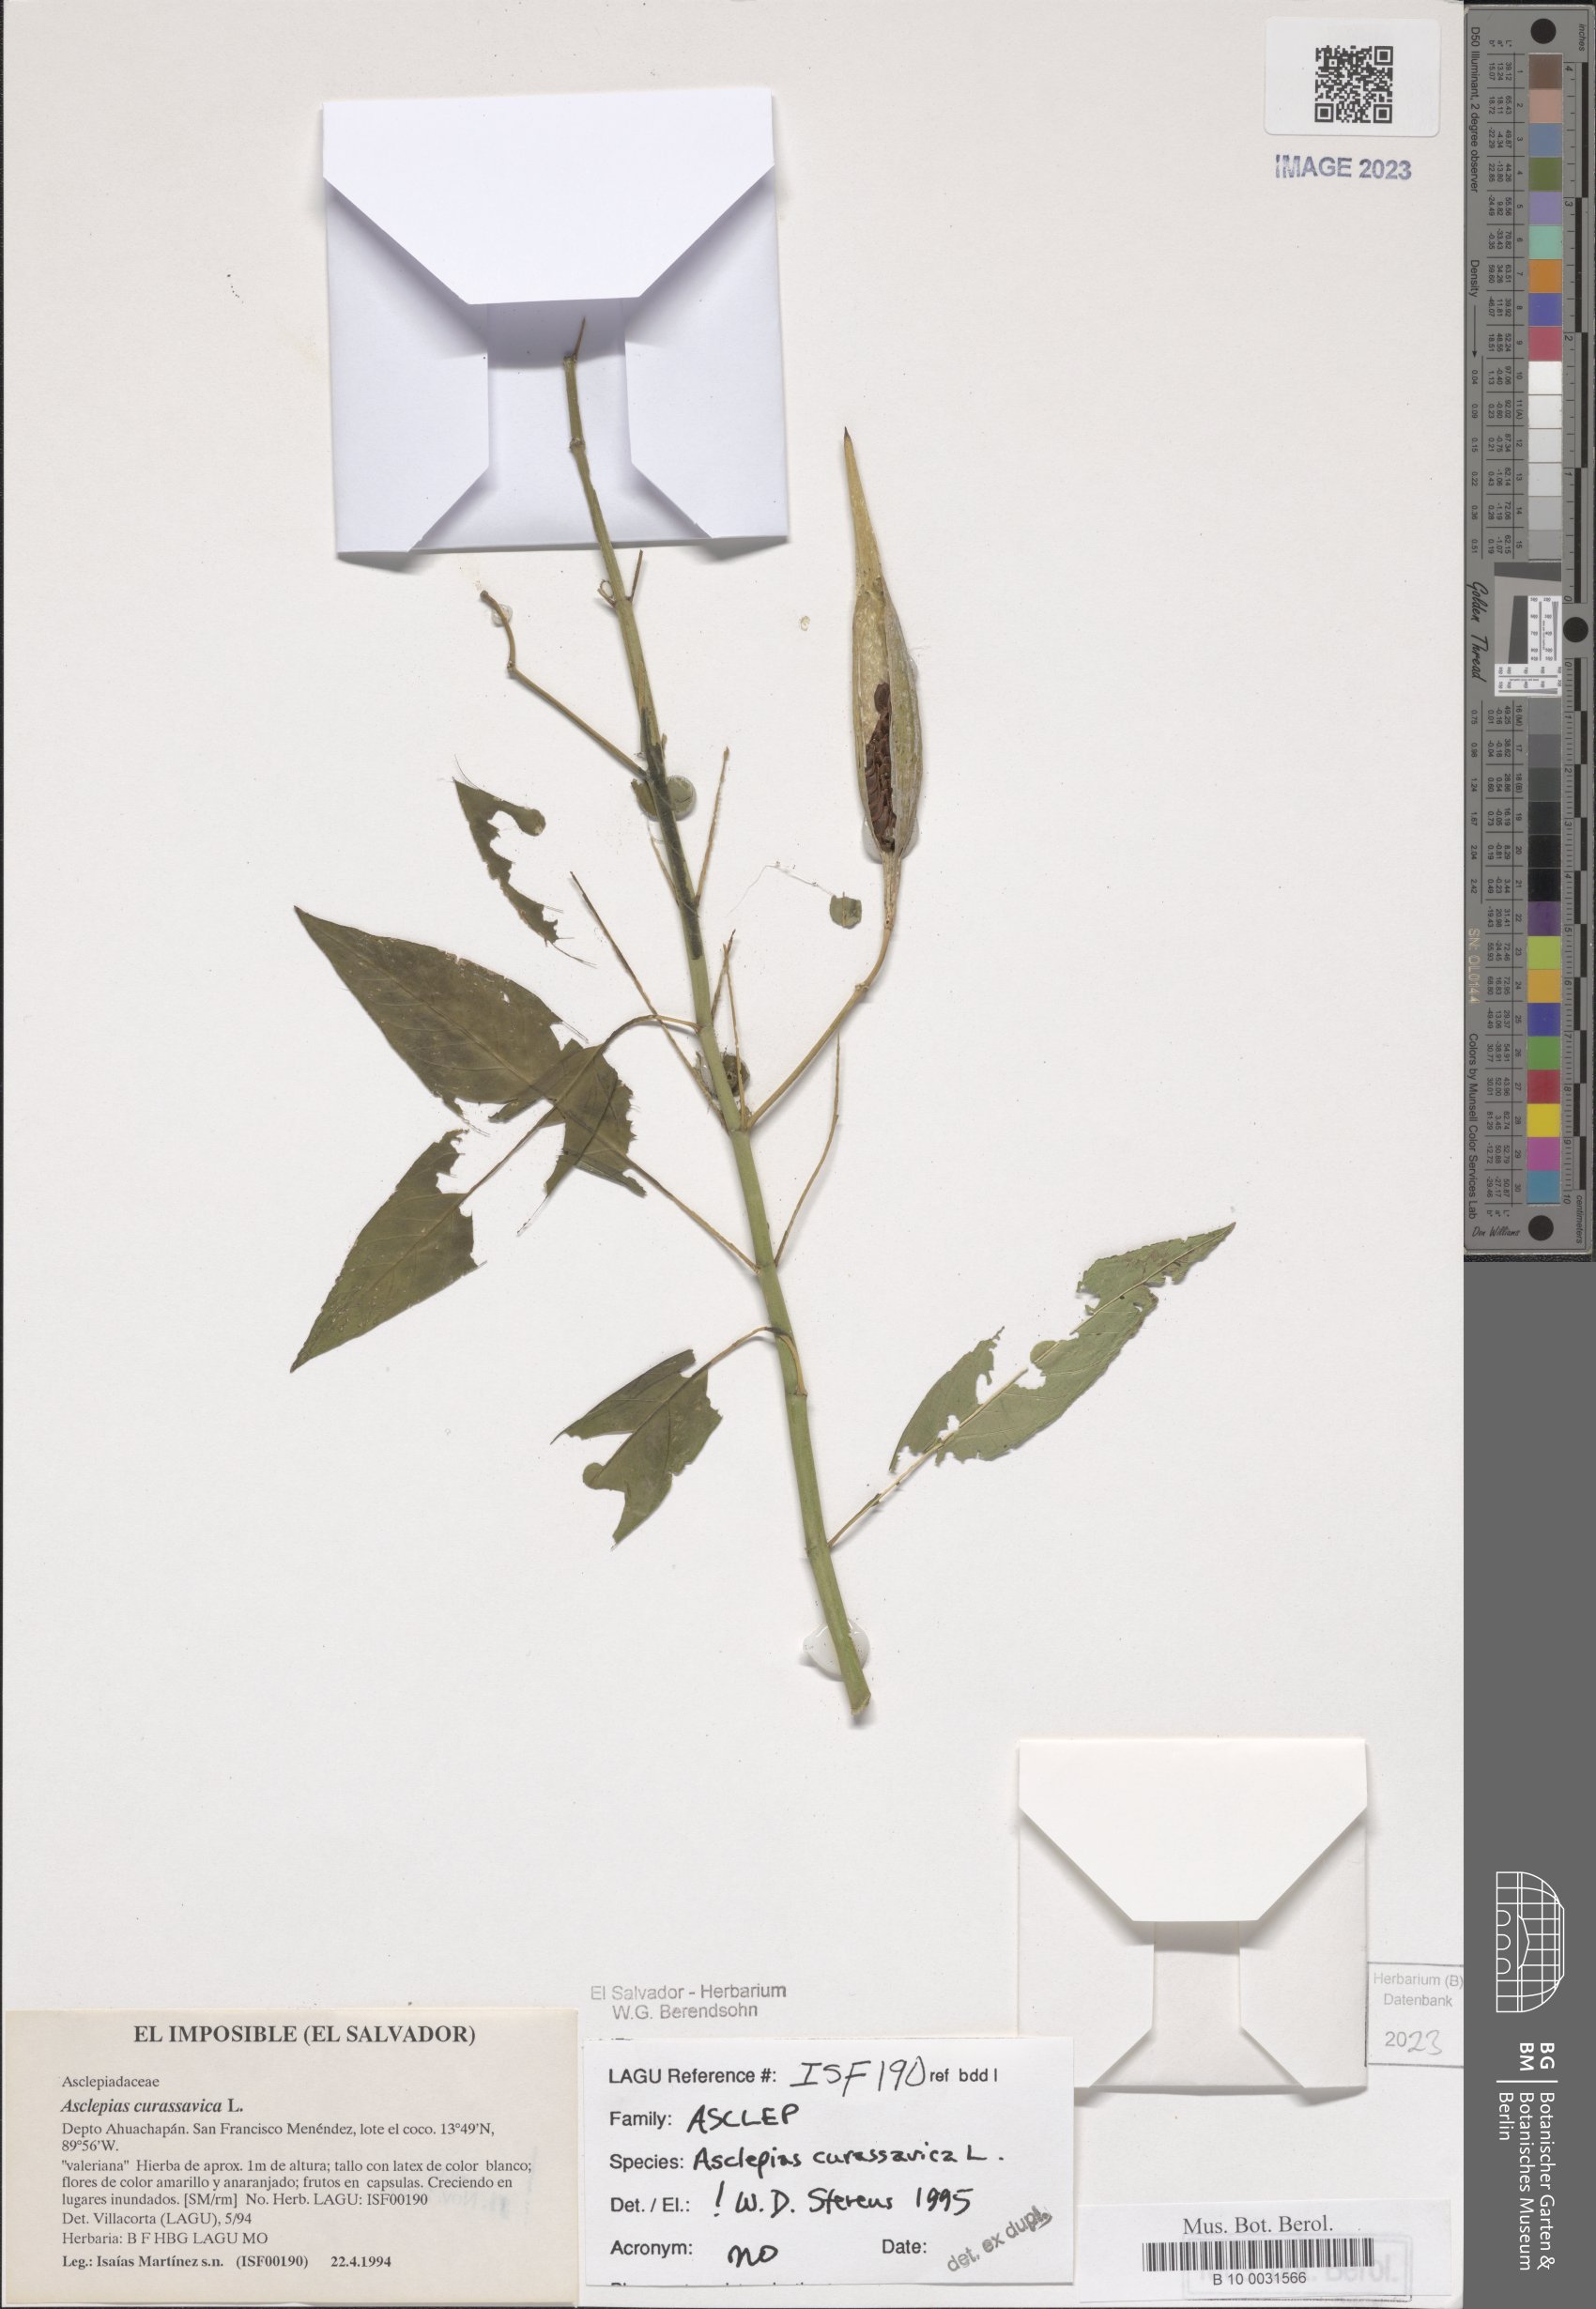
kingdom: Plantae
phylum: Tracheophyta
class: Magnoliopsida
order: Gentianales
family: Apocynaceae
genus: Asclepias
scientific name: Asclepias curassavica
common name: Bloodflower
